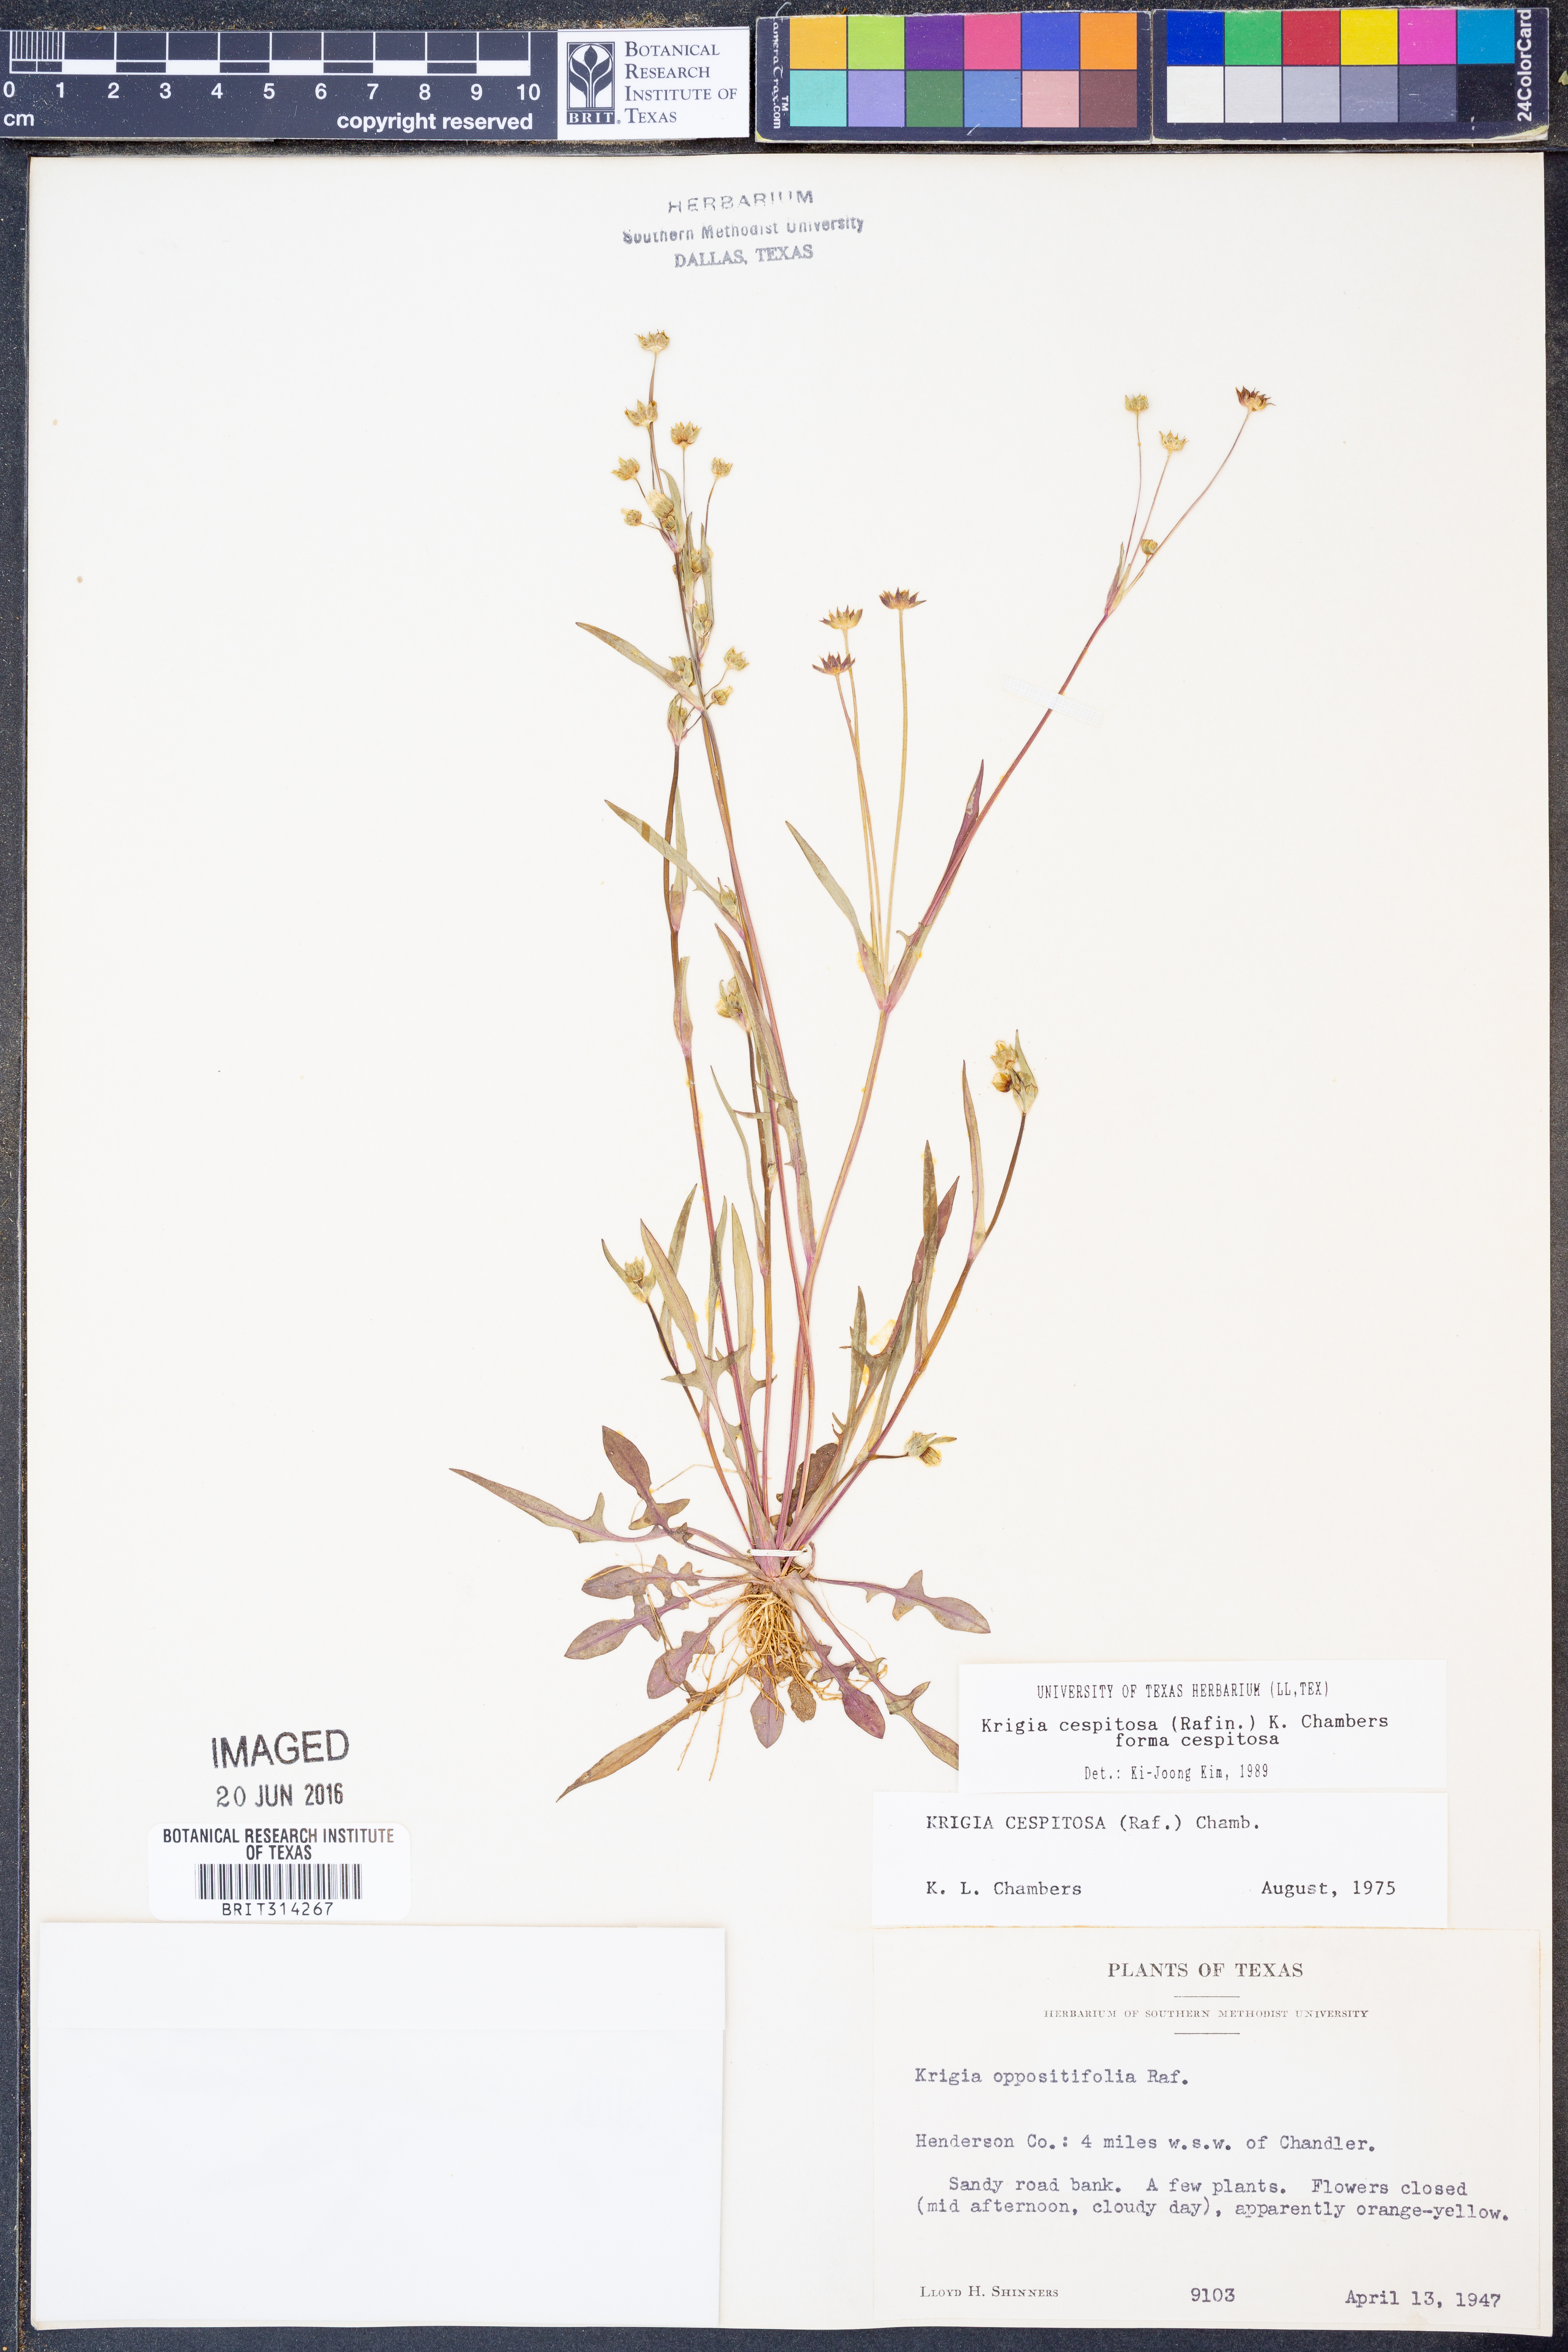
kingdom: Plantae
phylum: Tracheophyta
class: Magnoliopsida
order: Asterales
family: Asteraceae
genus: Krigia
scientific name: Krigia cespitosa
